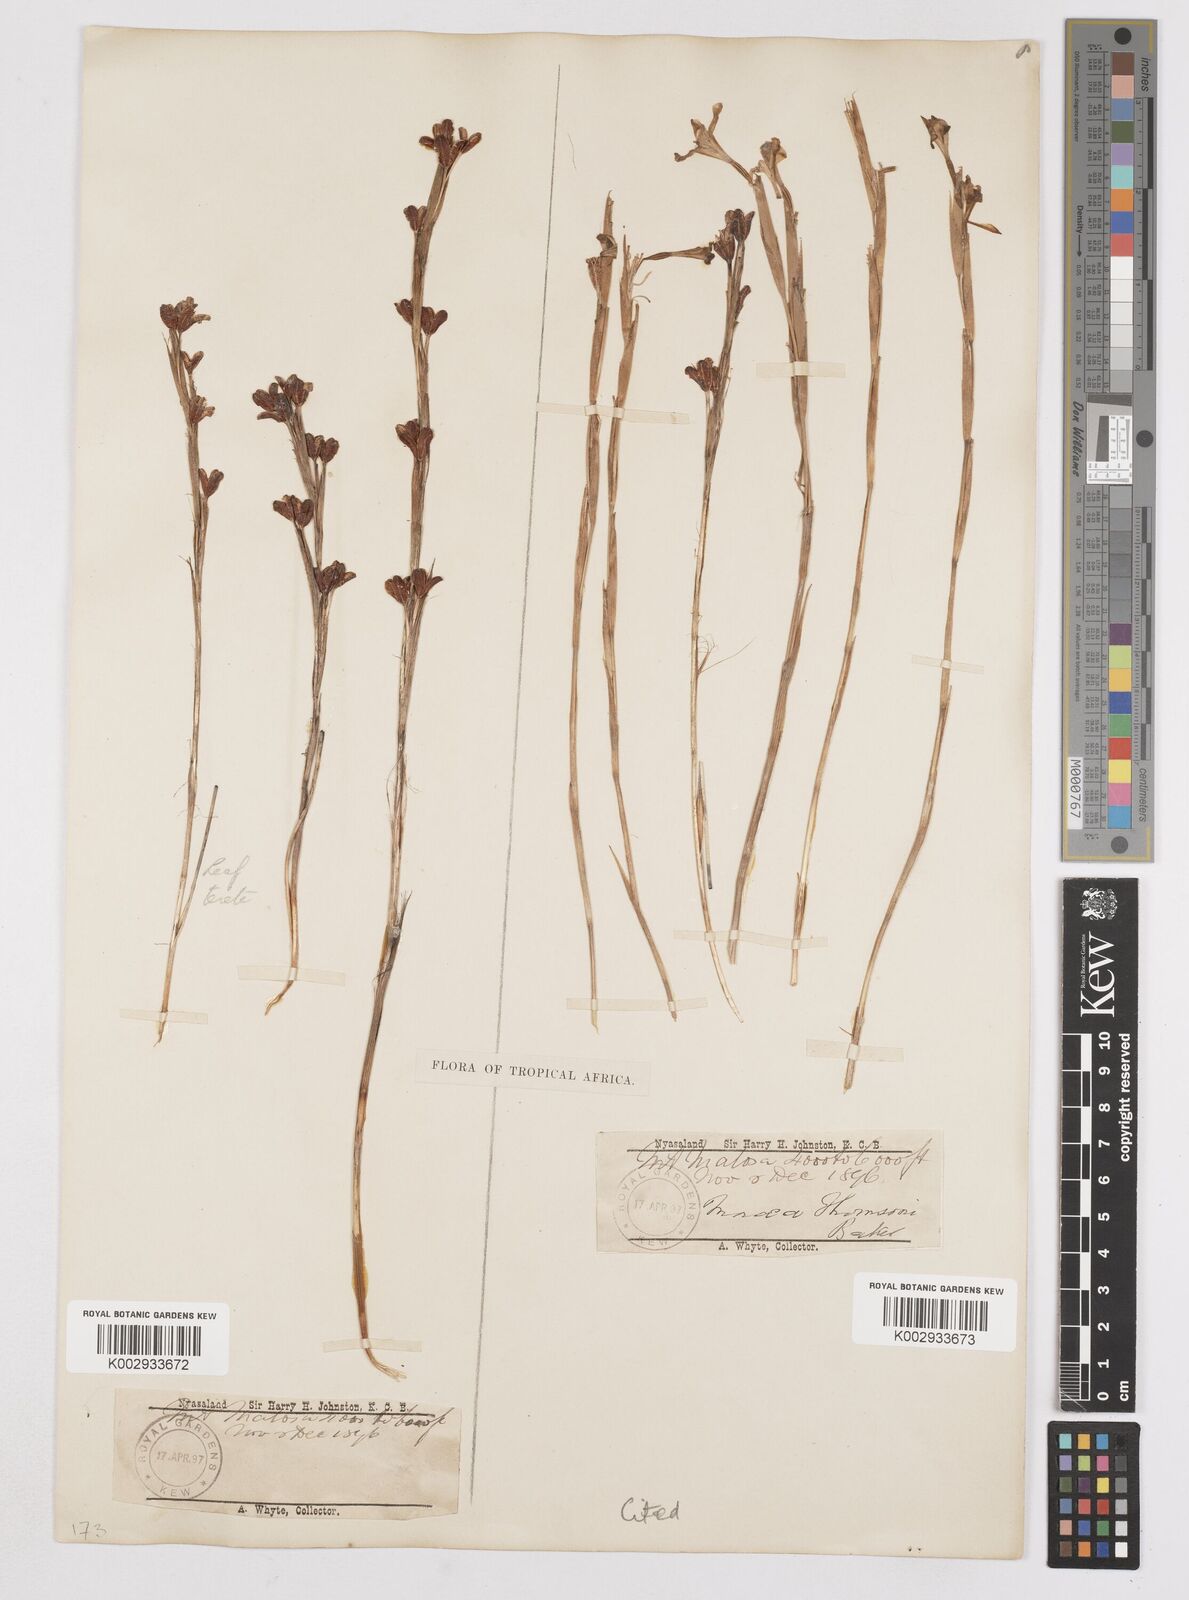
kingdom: Plantae
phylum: Tracheophyta
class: Liliopsida
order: Asparagales
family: Iridaceae
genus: Moraea
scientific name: Moraea thomsonii
